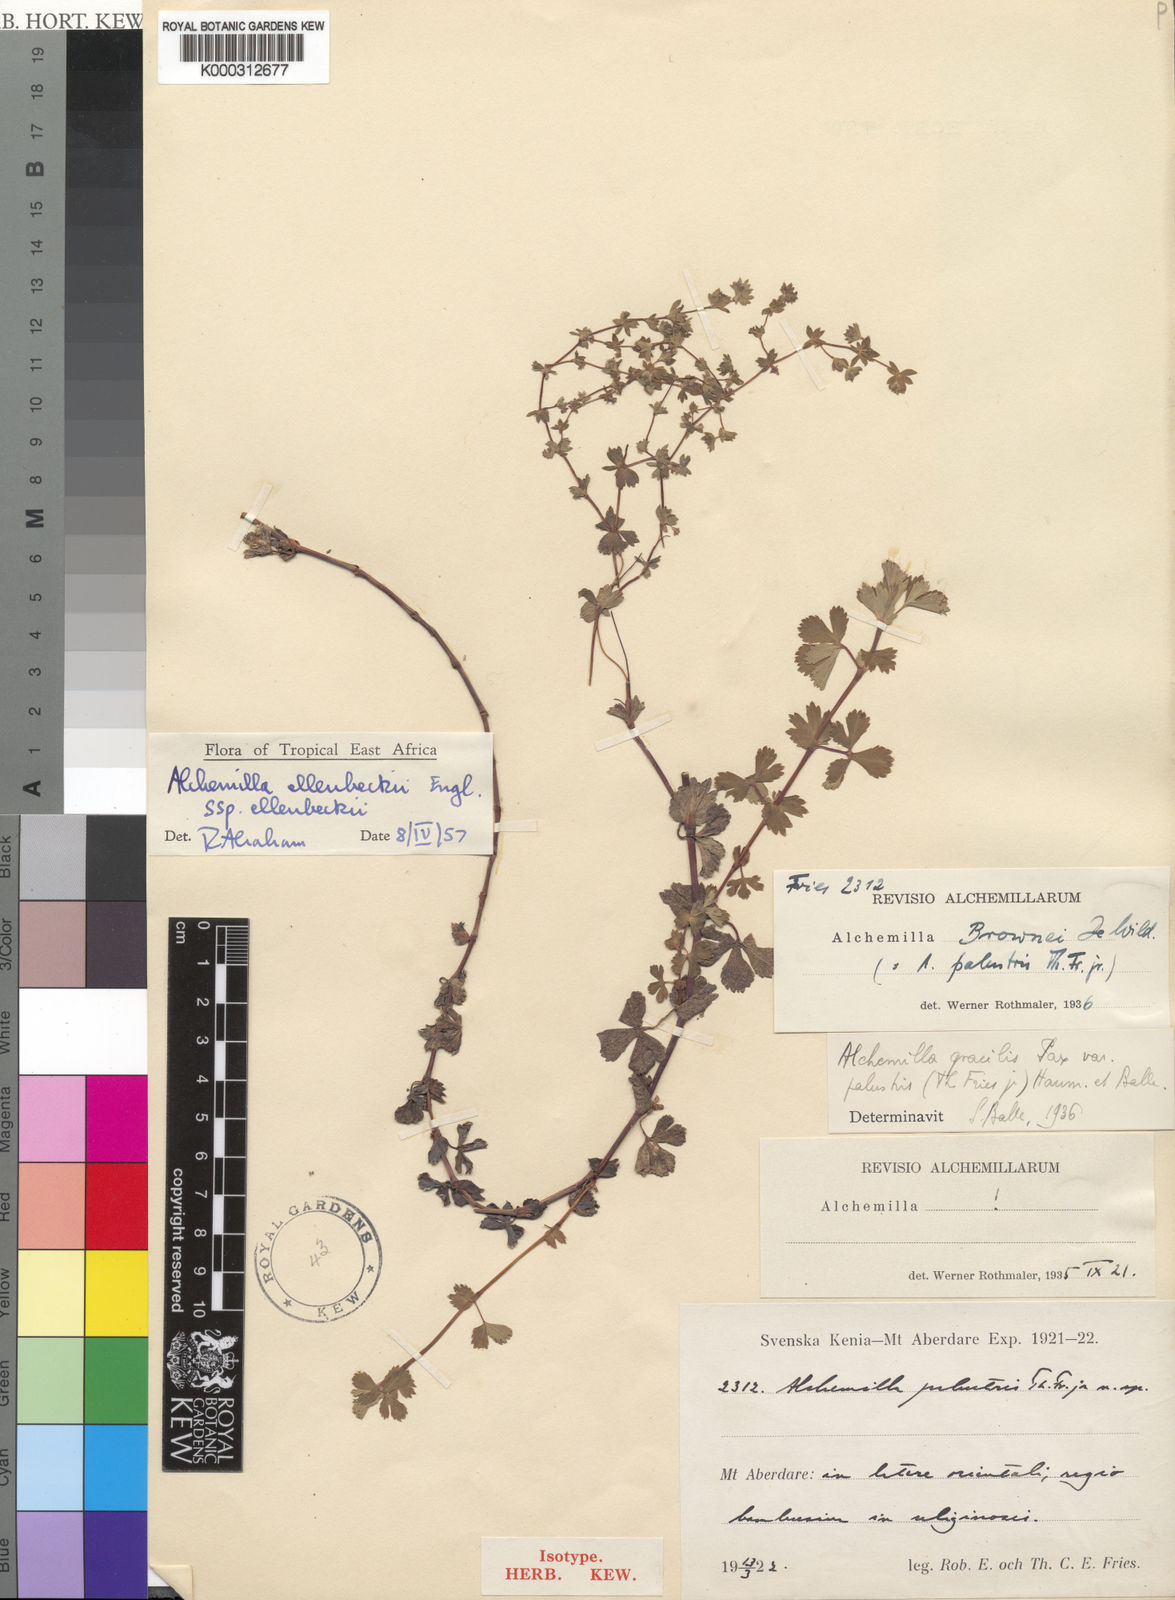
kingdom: Plantae
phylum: Tracheophyta
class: Magnoliopsida
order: Rosales
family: Rosaceae
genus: Alchemilla
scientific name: Alchemilla ellenbeckii
